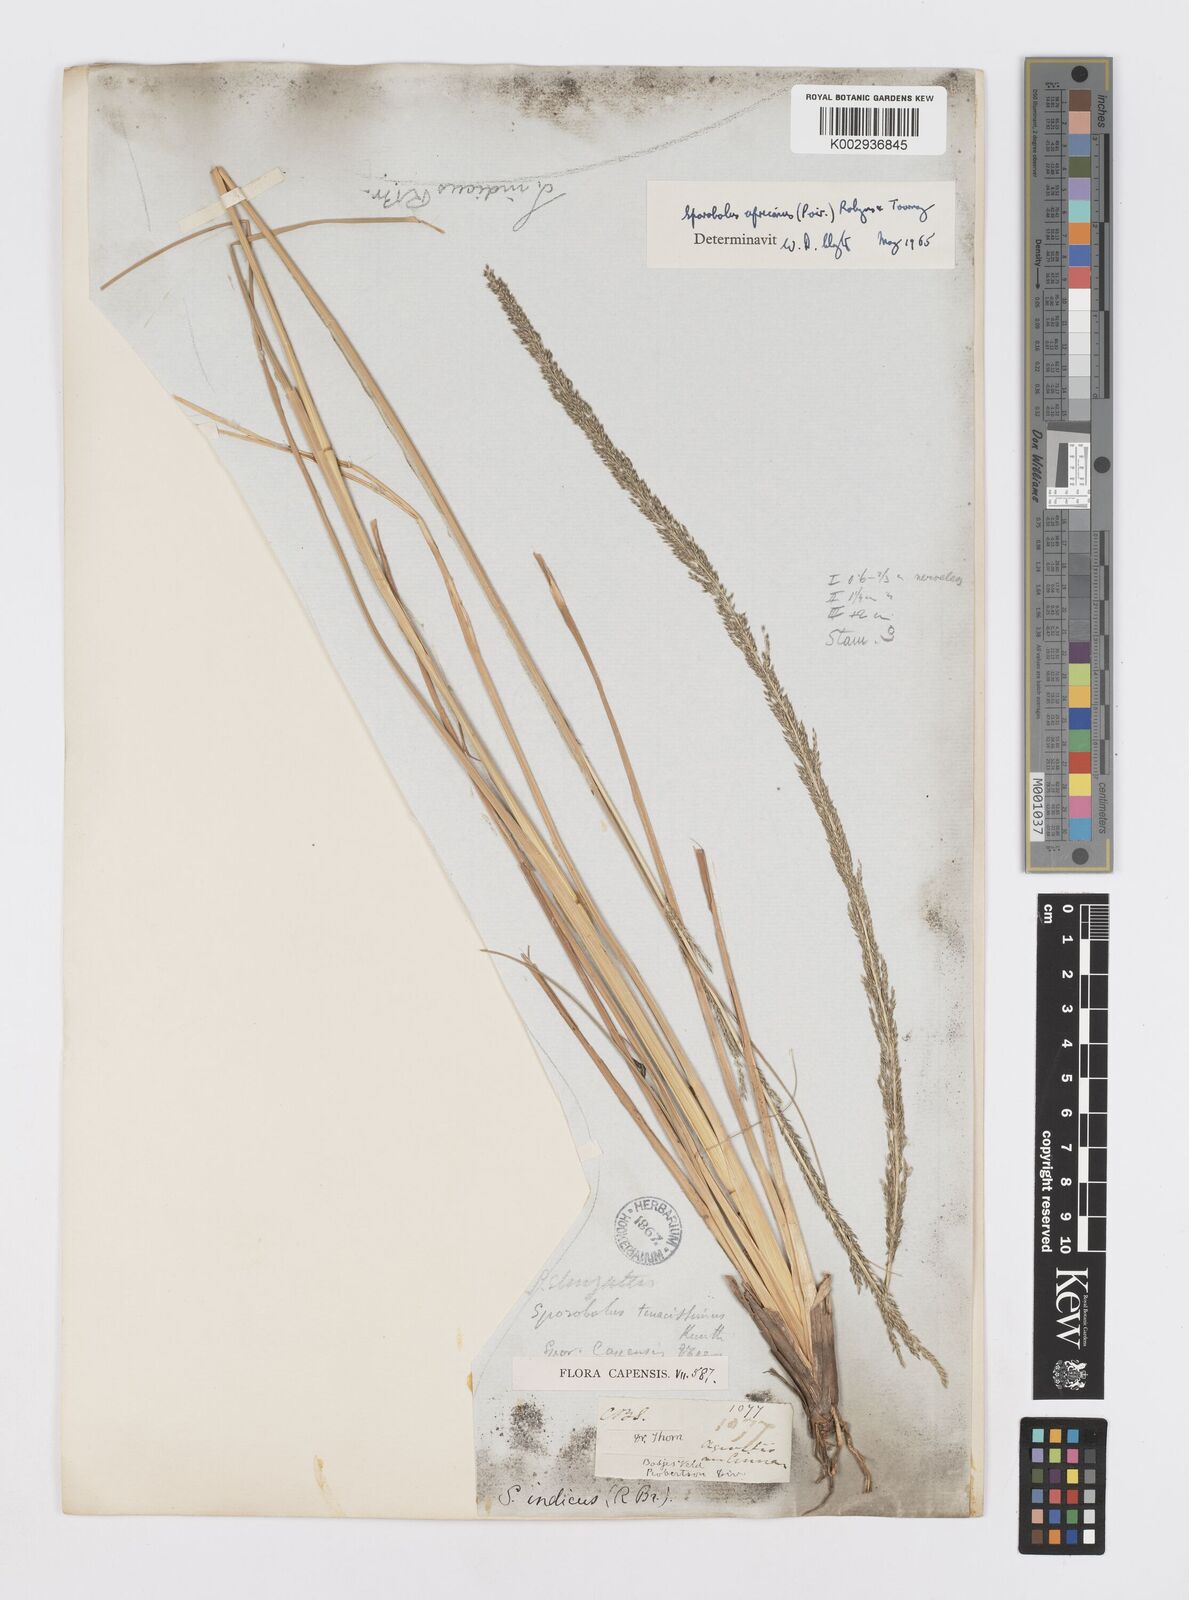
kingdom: Plantae
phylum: Tracheophyta
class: Liliopsida
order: Poales
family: Poaceae
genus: Sporobolus
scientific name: Sporobolus africanus
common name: African dropseed
